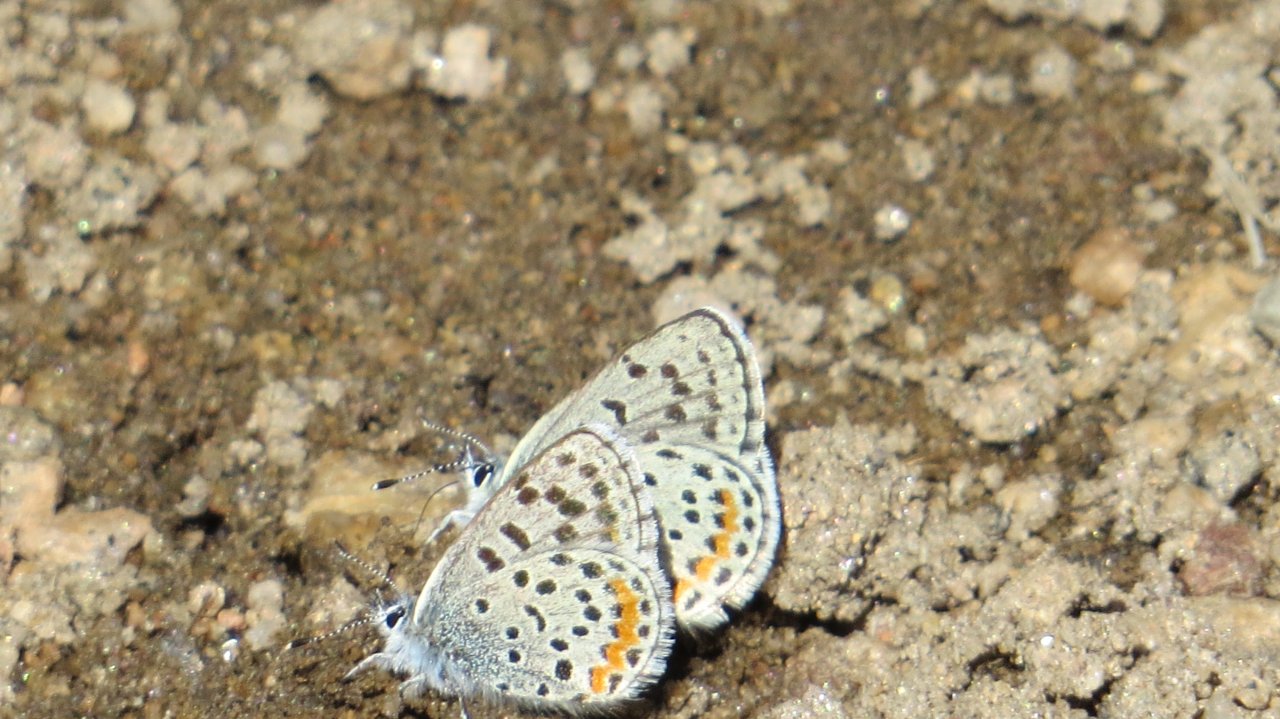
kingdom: Animalia
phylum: Arthropoda
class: Insecta
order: Lepidoptera
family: Lycaenidae
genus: Euphilotes
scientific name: Euphilotes enoptes
